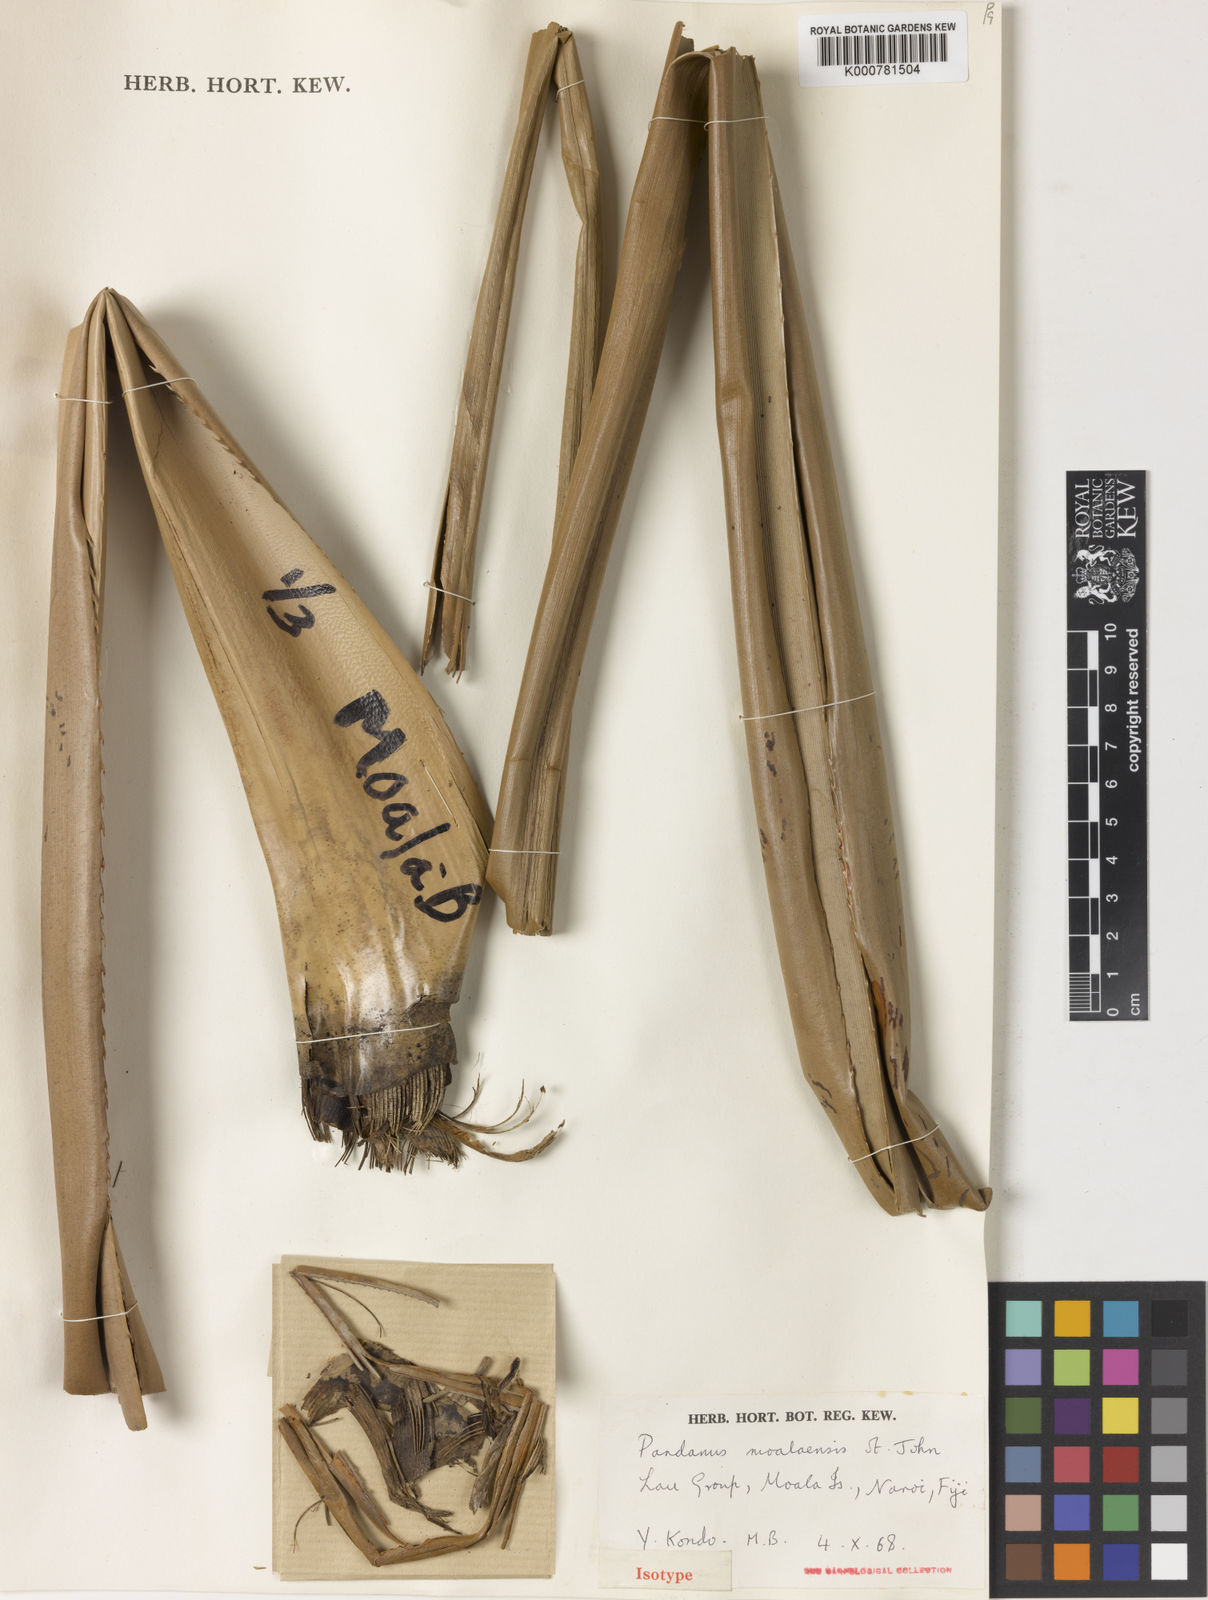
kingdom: Plantae
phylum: Tracheophyta
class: Liliopsida
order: Pandanales
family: Pandanaceae
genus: Pandanus
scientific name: Pandanus moalaensis
